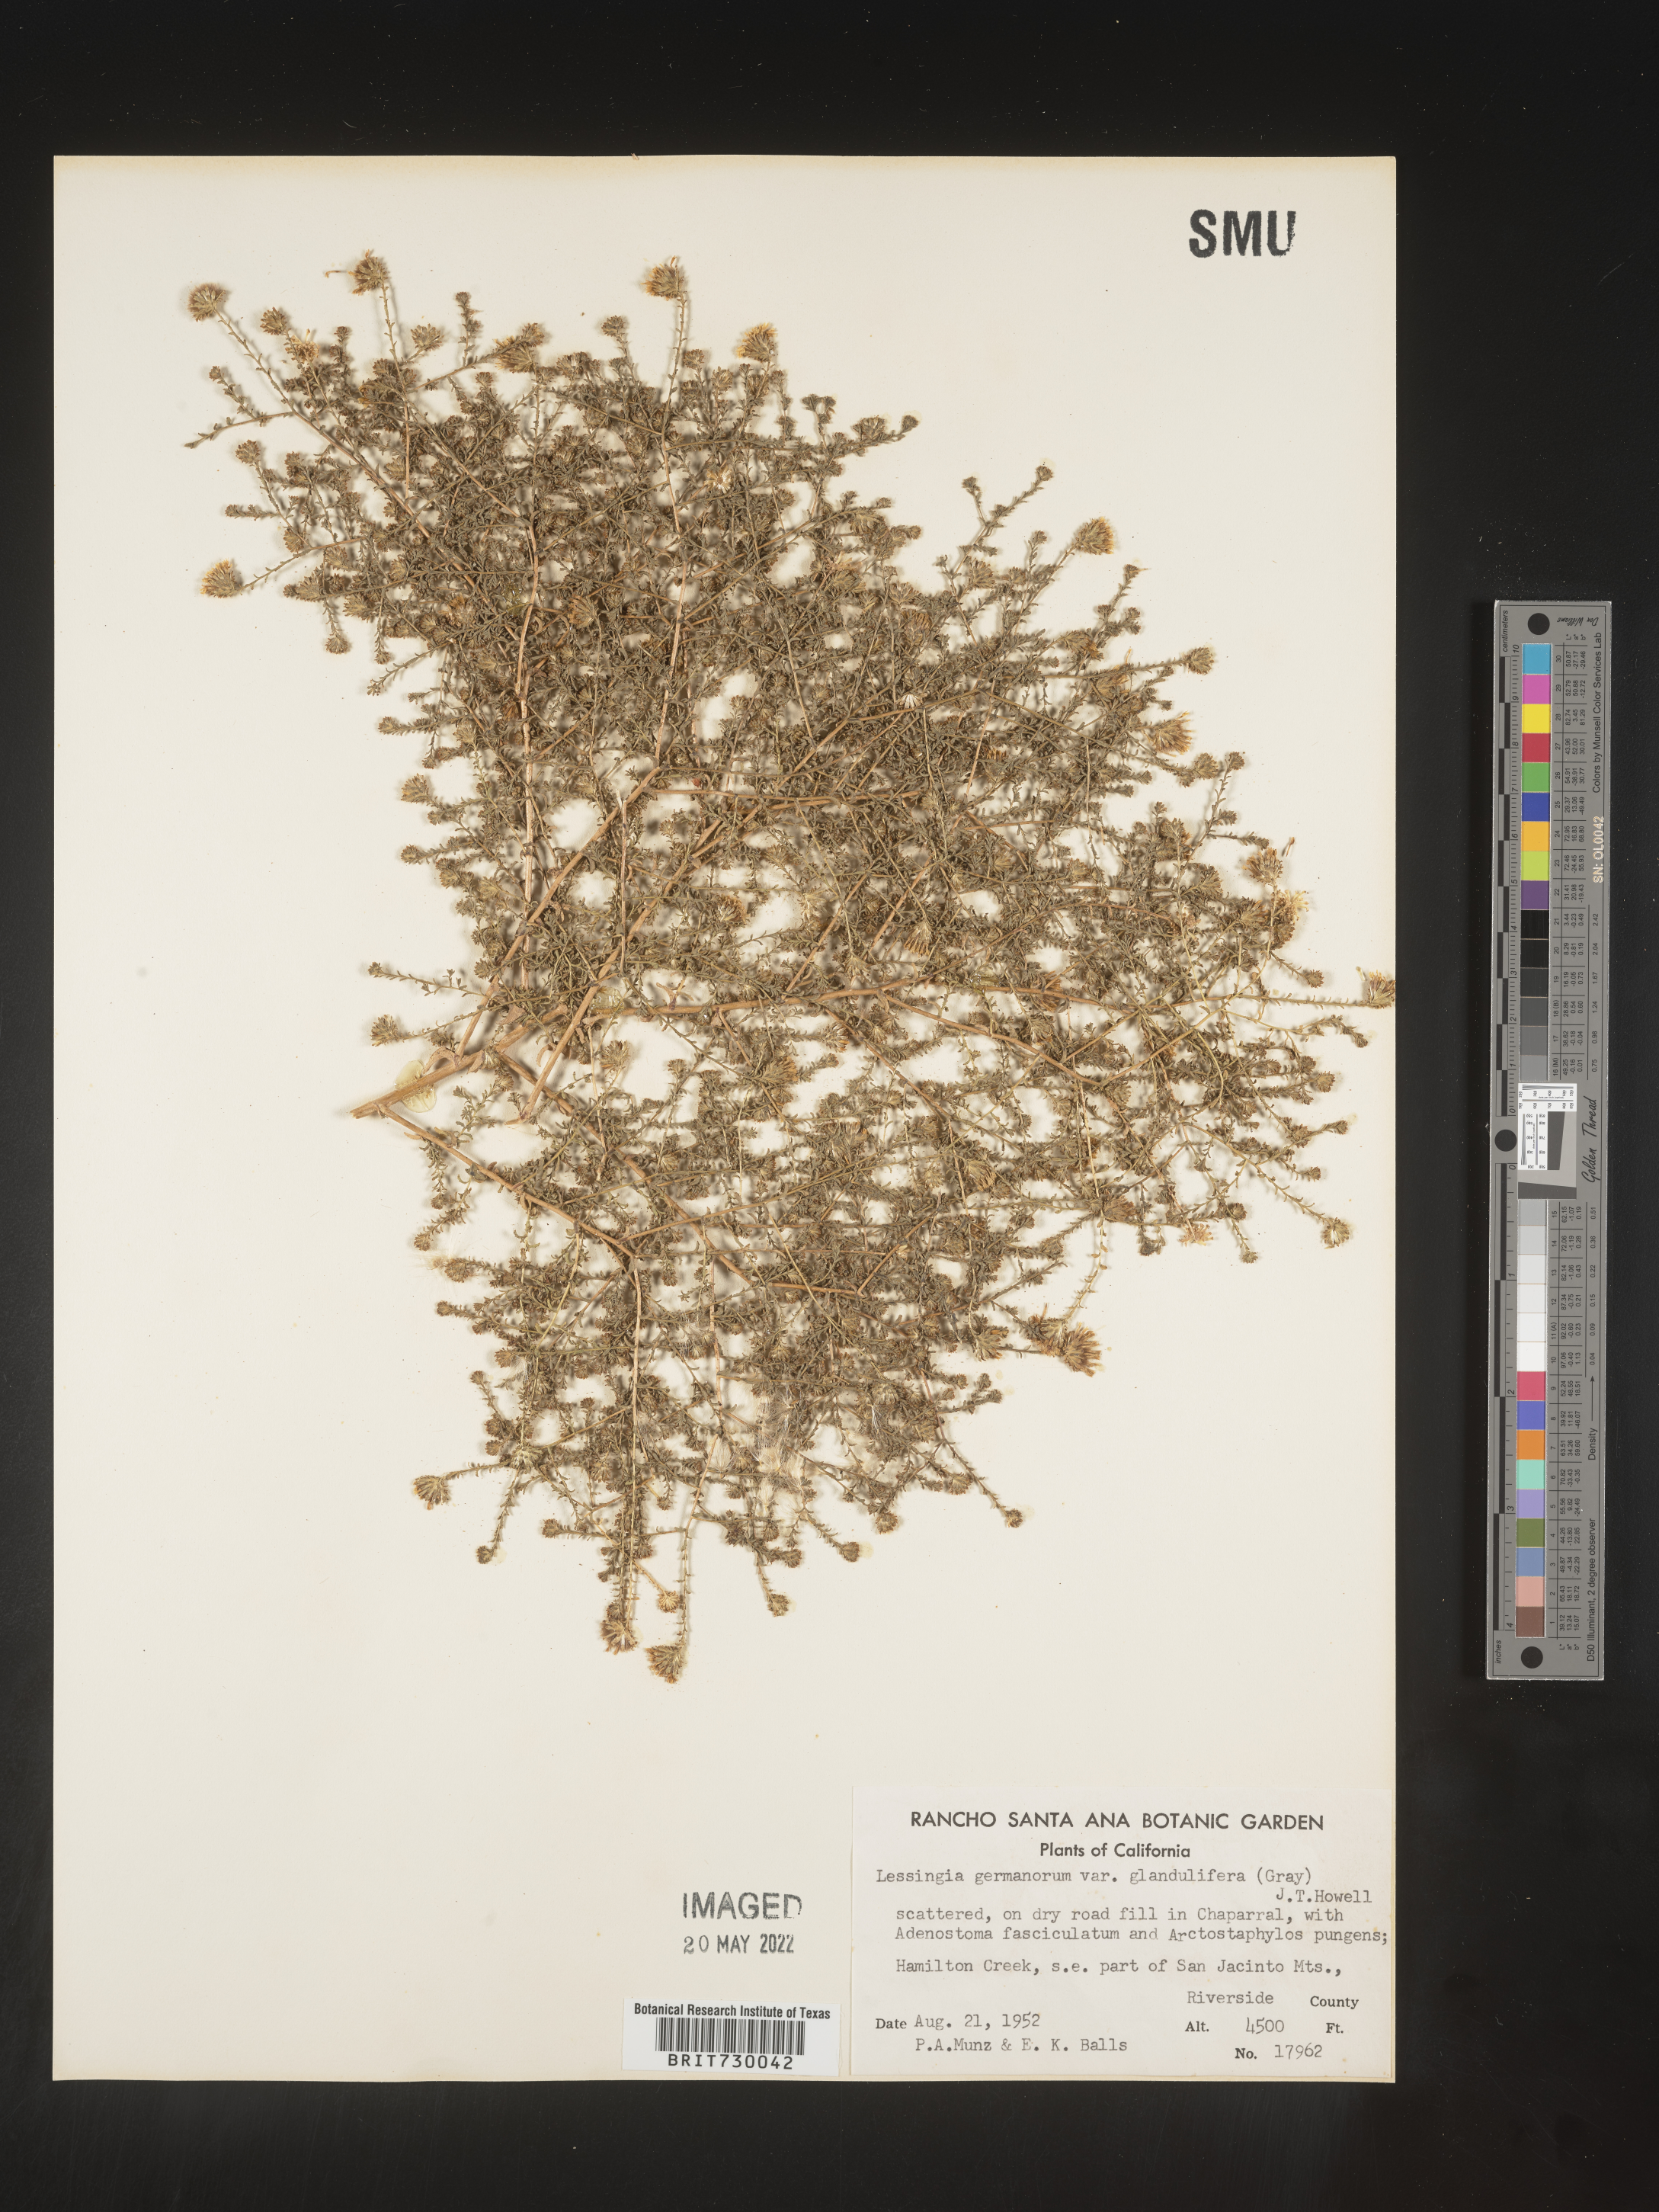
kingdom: Plantae
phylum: Tracheophyta
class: Magnoliopsida
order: Asterales
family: Asteraceae
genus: Lessingia
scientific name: Lessingia
